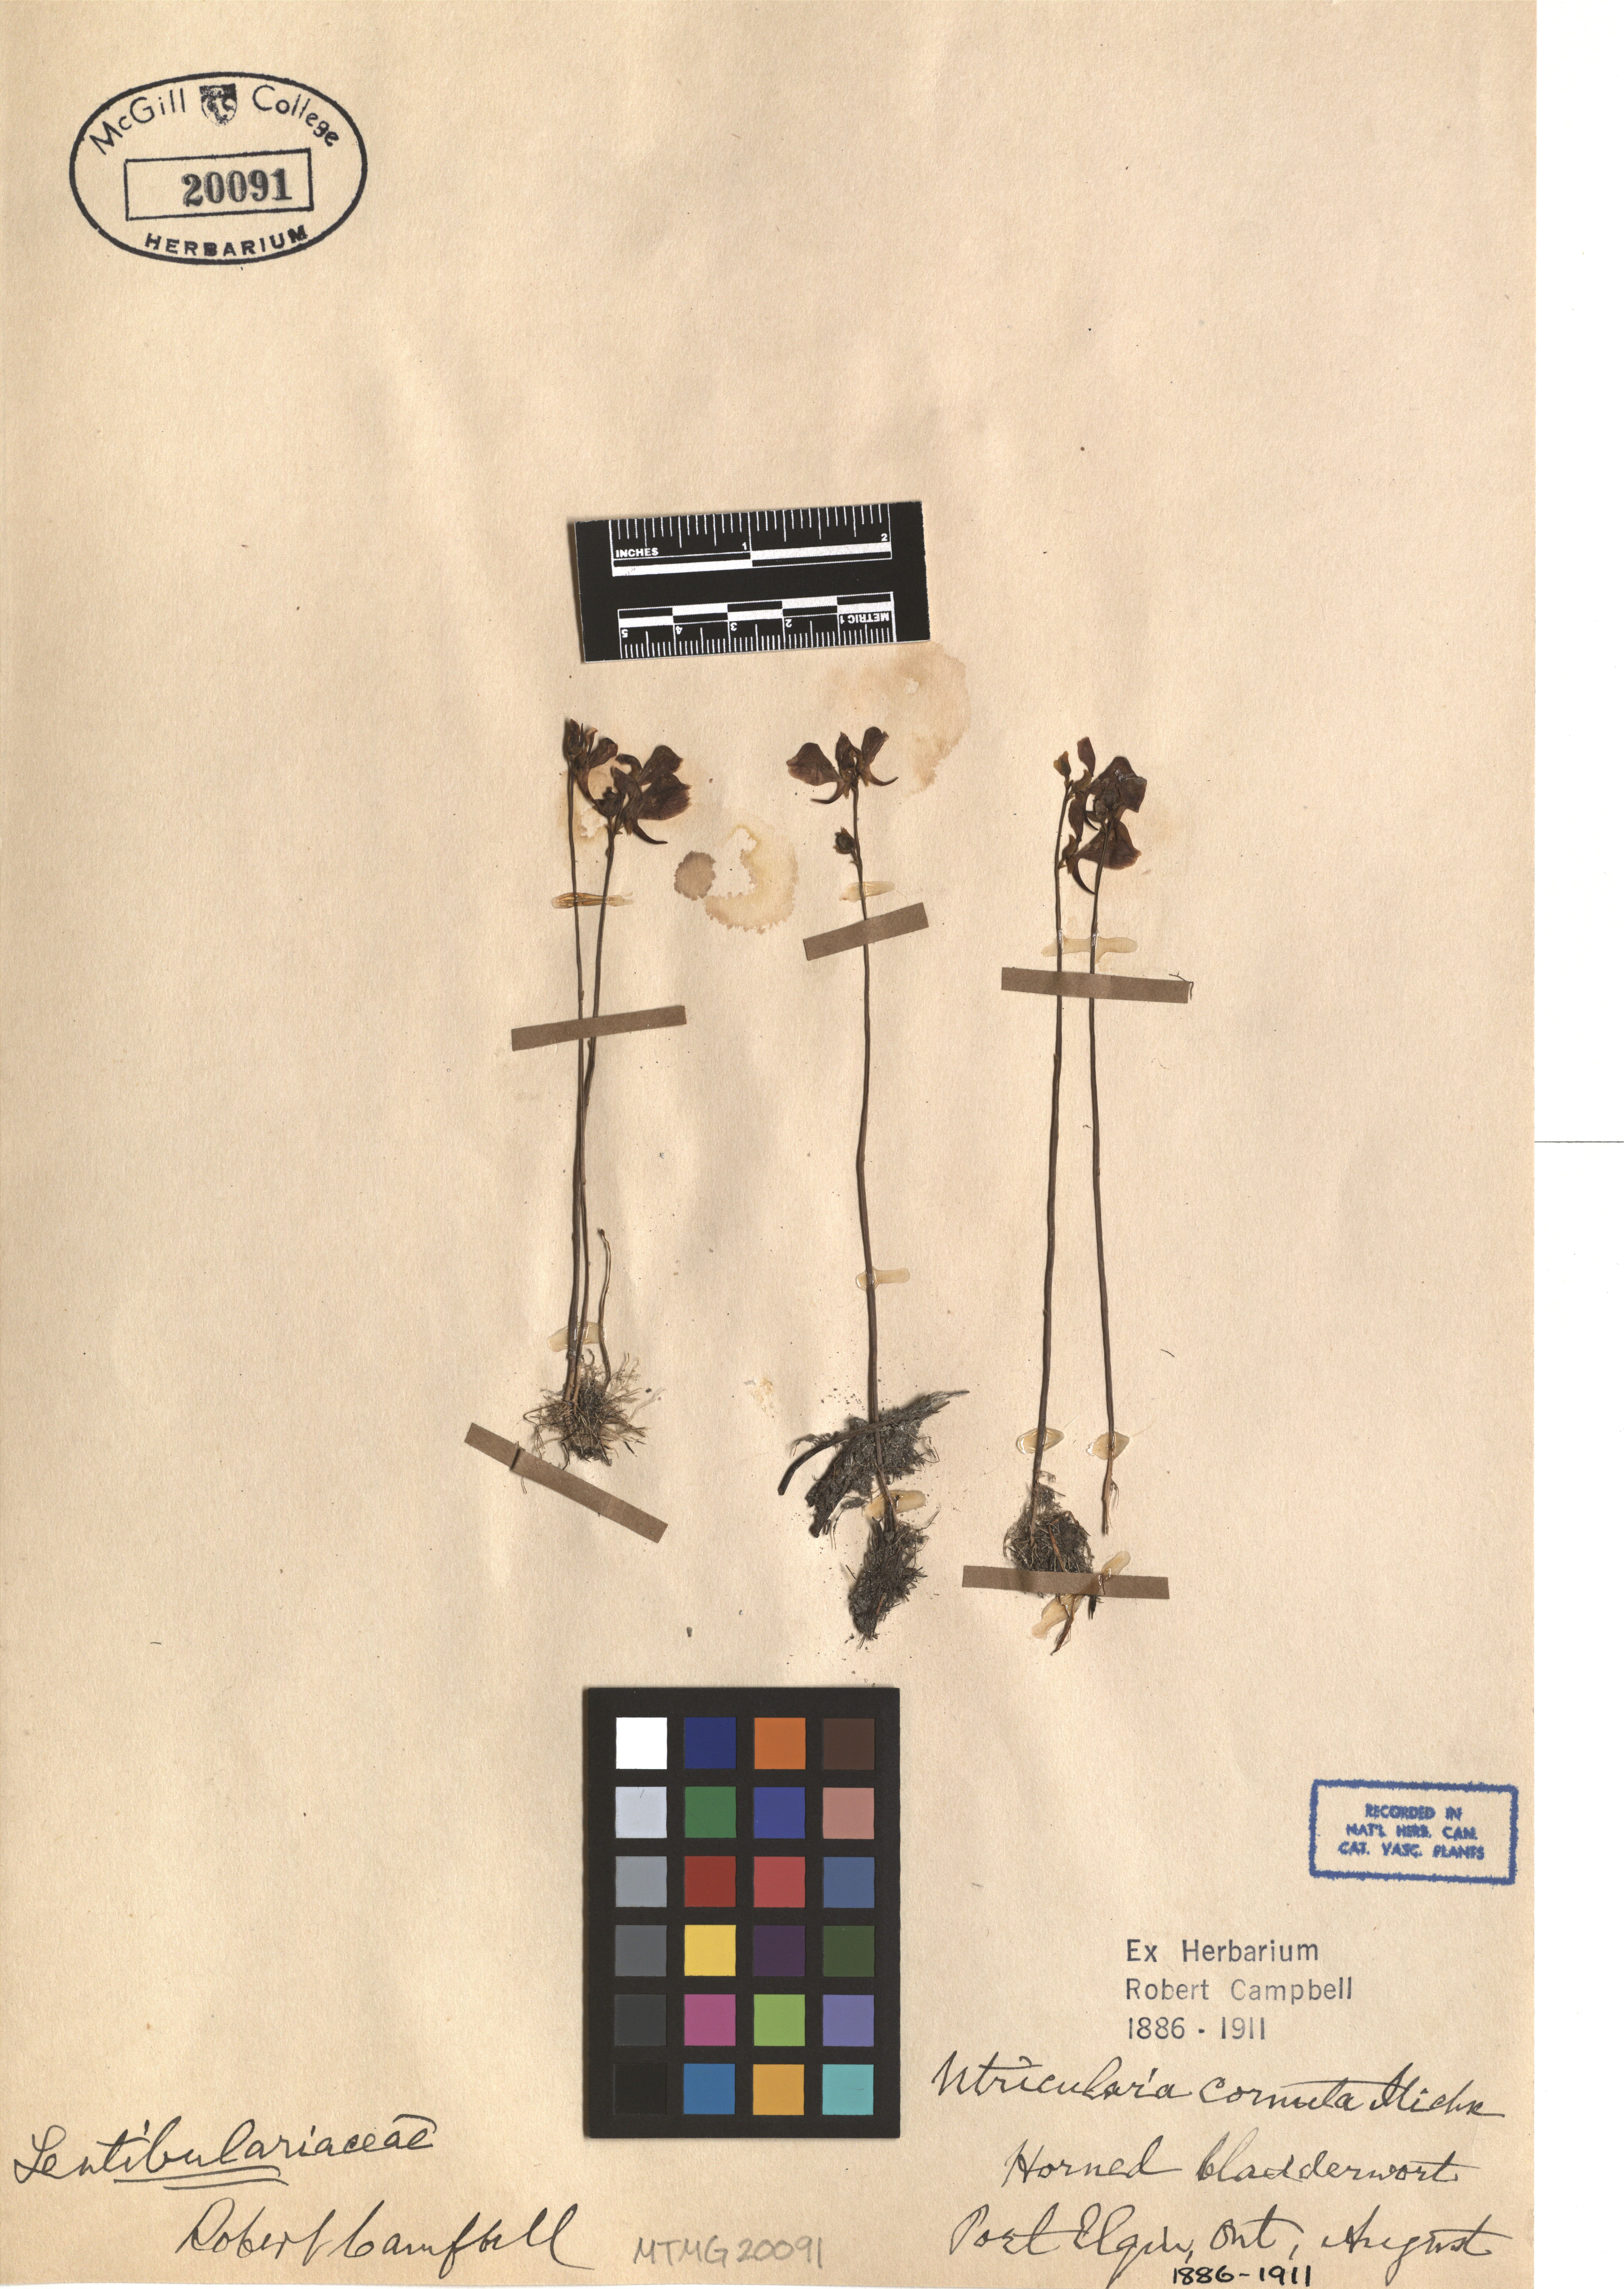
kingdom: Plantae
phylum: Tracheophyta
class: Magnoliopsida
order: Lamiales
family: Lentibulariaceae
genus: Utricularia
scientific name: Utricularia cornuta
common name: Horned bladderwort
